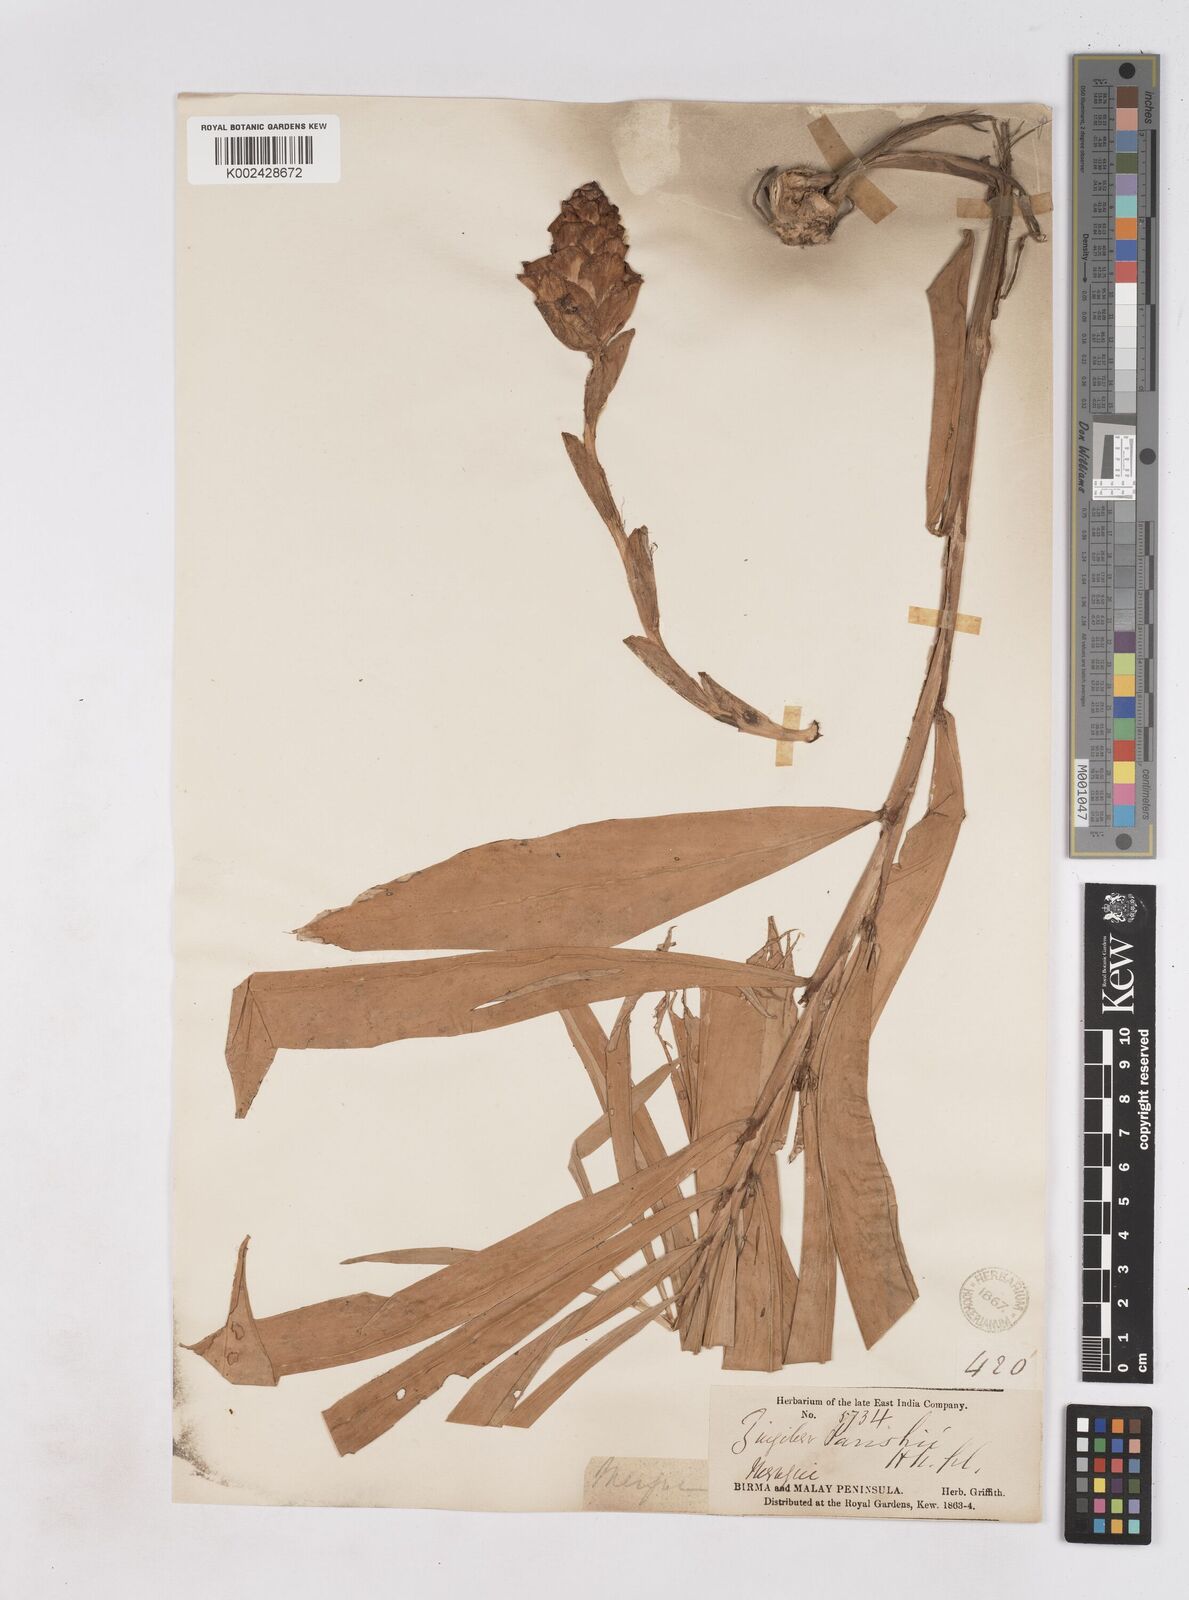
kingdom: Plantae
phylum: Tracheophyta
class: Liliopsida
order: Zingiberales
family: Zingiberaceae
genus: Zingiber
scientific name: Zingiber parishii
